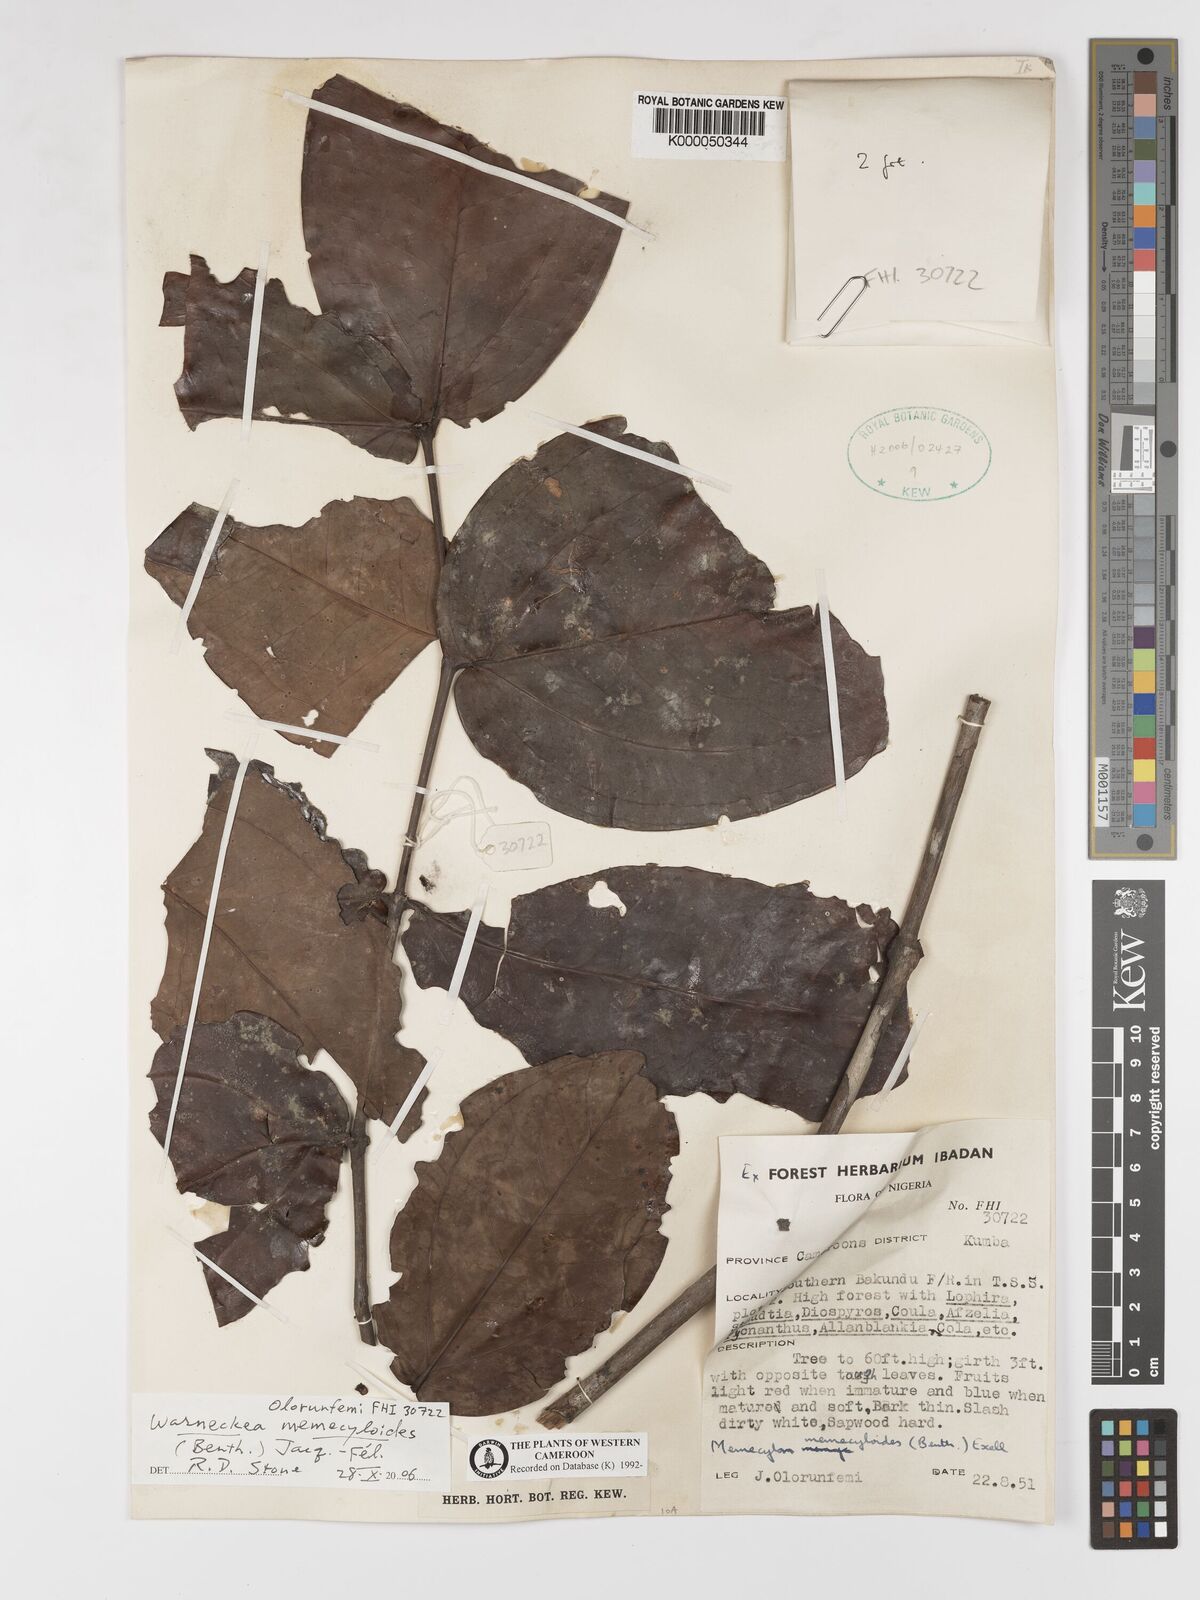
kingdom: Plantae
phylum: Tracheophyta
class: Magnoliopsida
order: Myrtales
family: Melastomataceae
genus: Warneckea
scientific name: Warneckea
